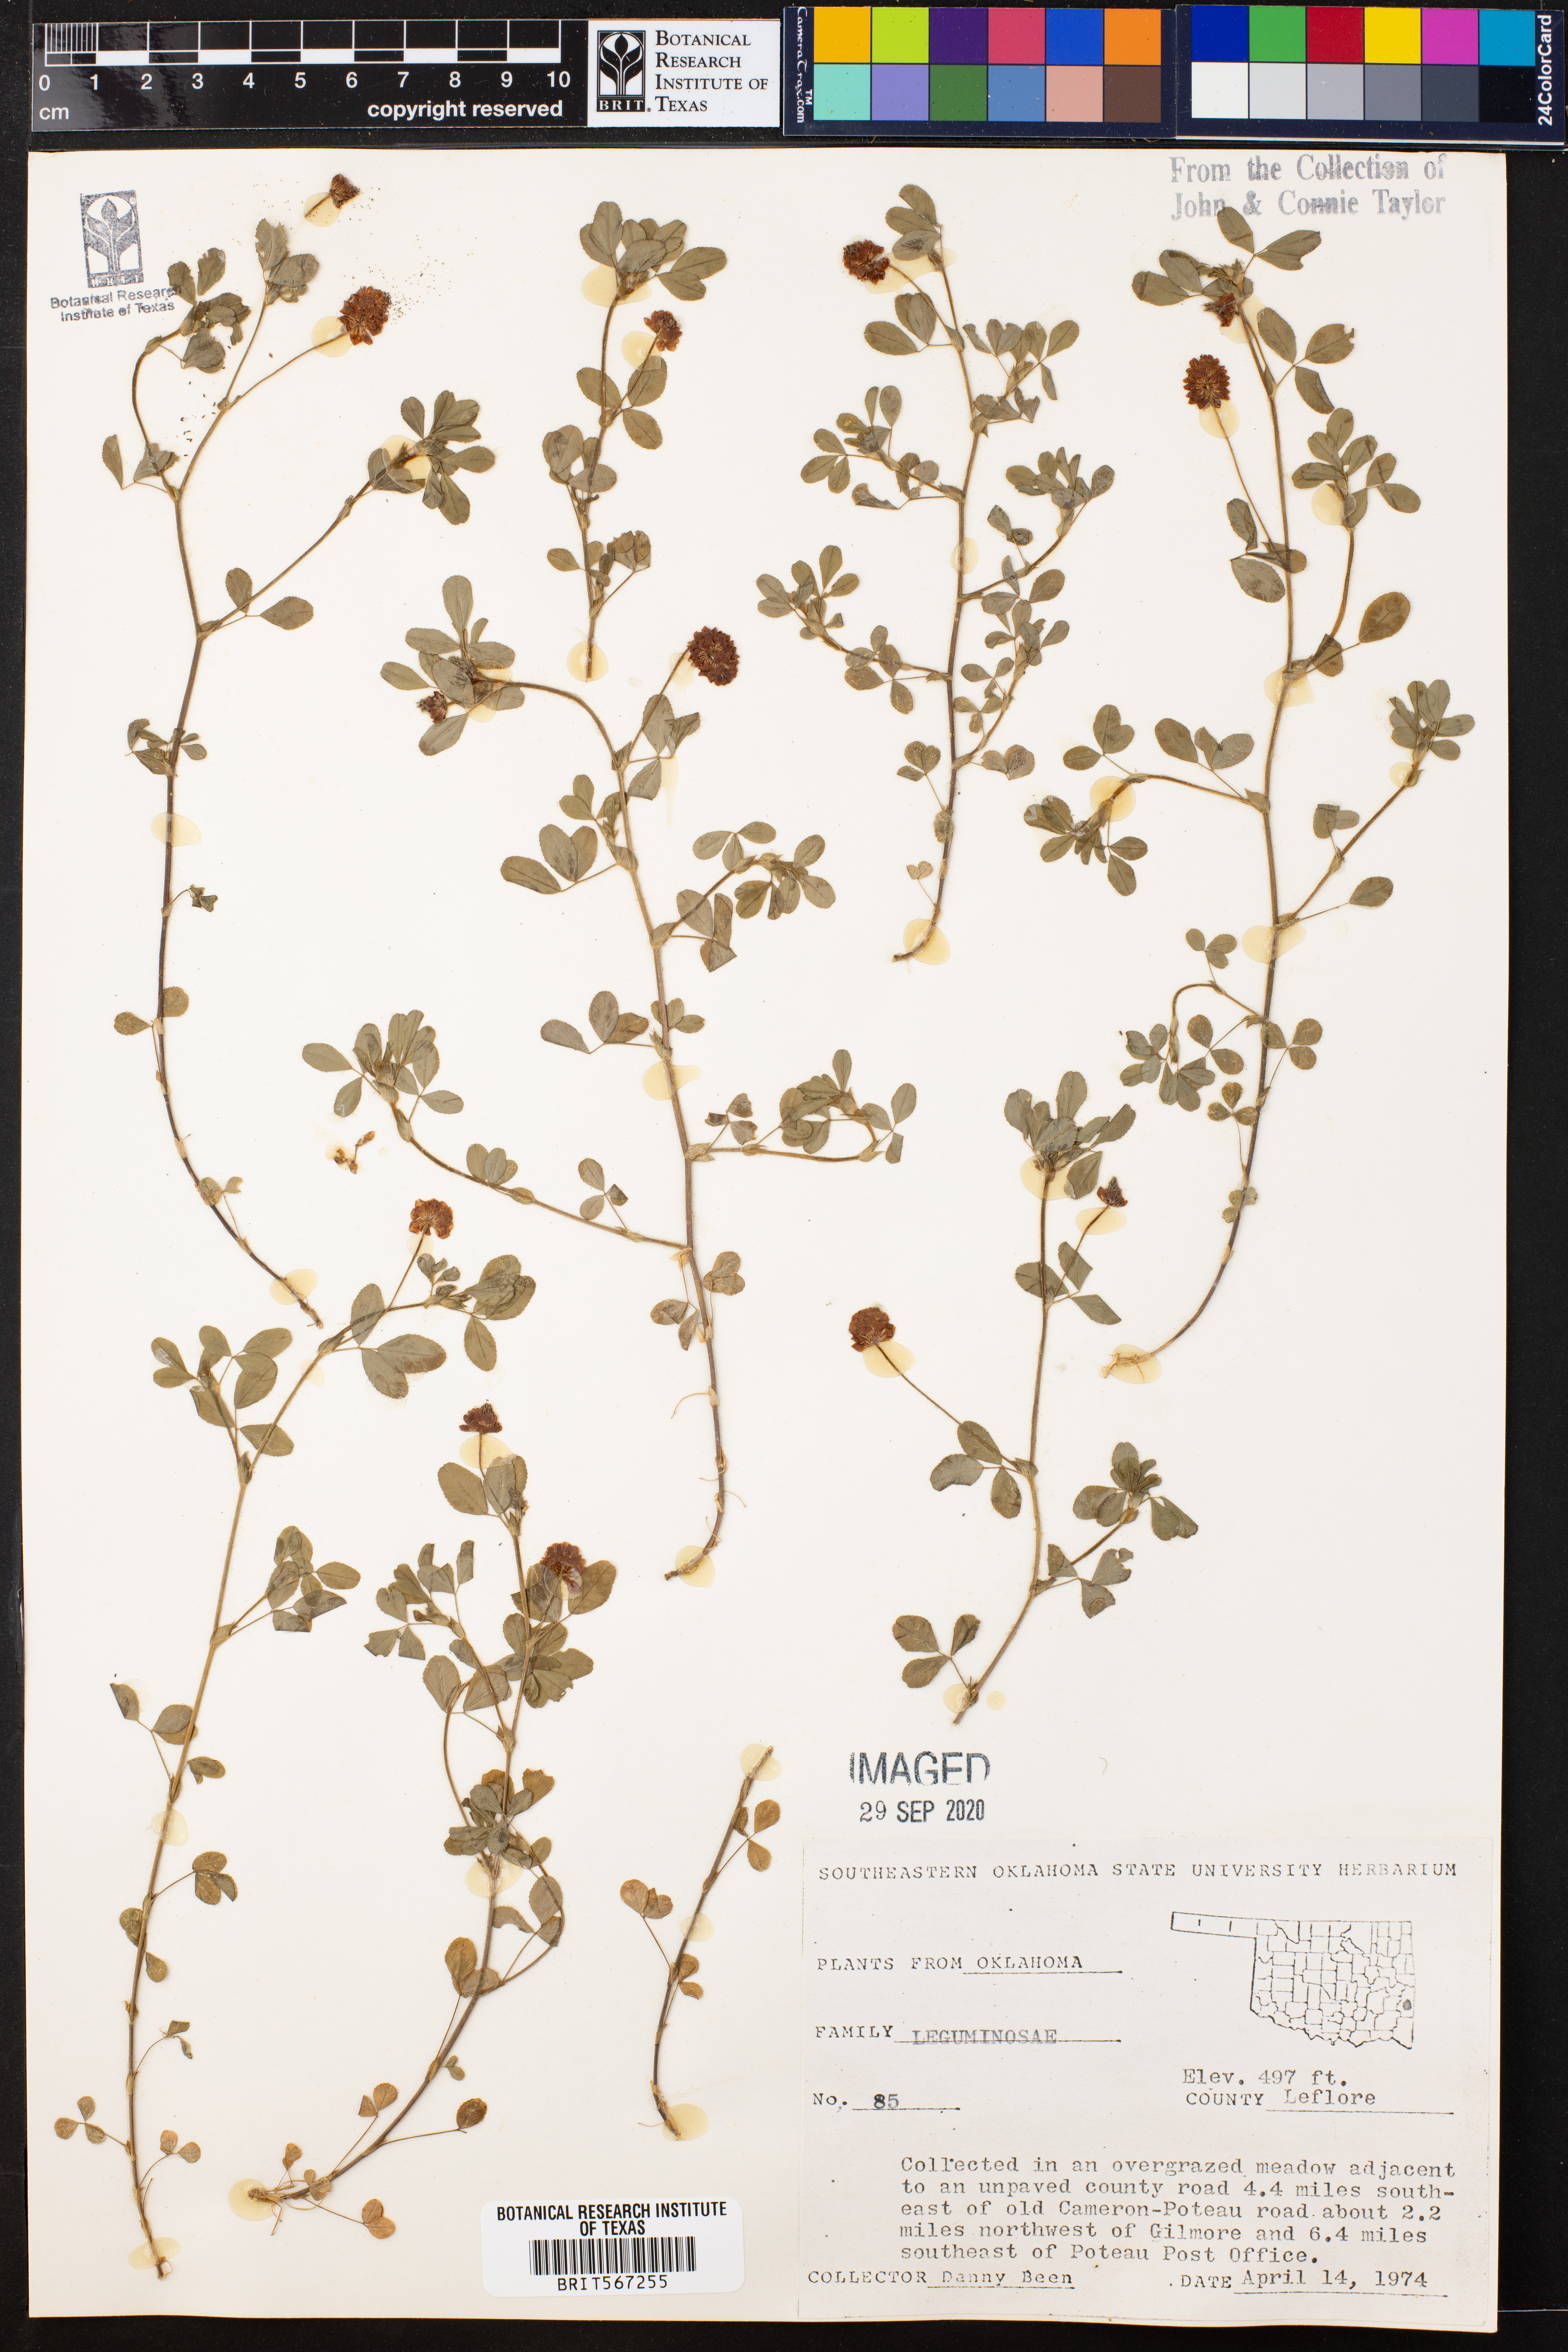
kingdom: Plantae
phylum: Tracheophyta
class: Magnoliopsida
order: Fabales
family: Fabaceae
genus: Trifolium
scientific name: Trifolium dubium
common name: Suckling clover
